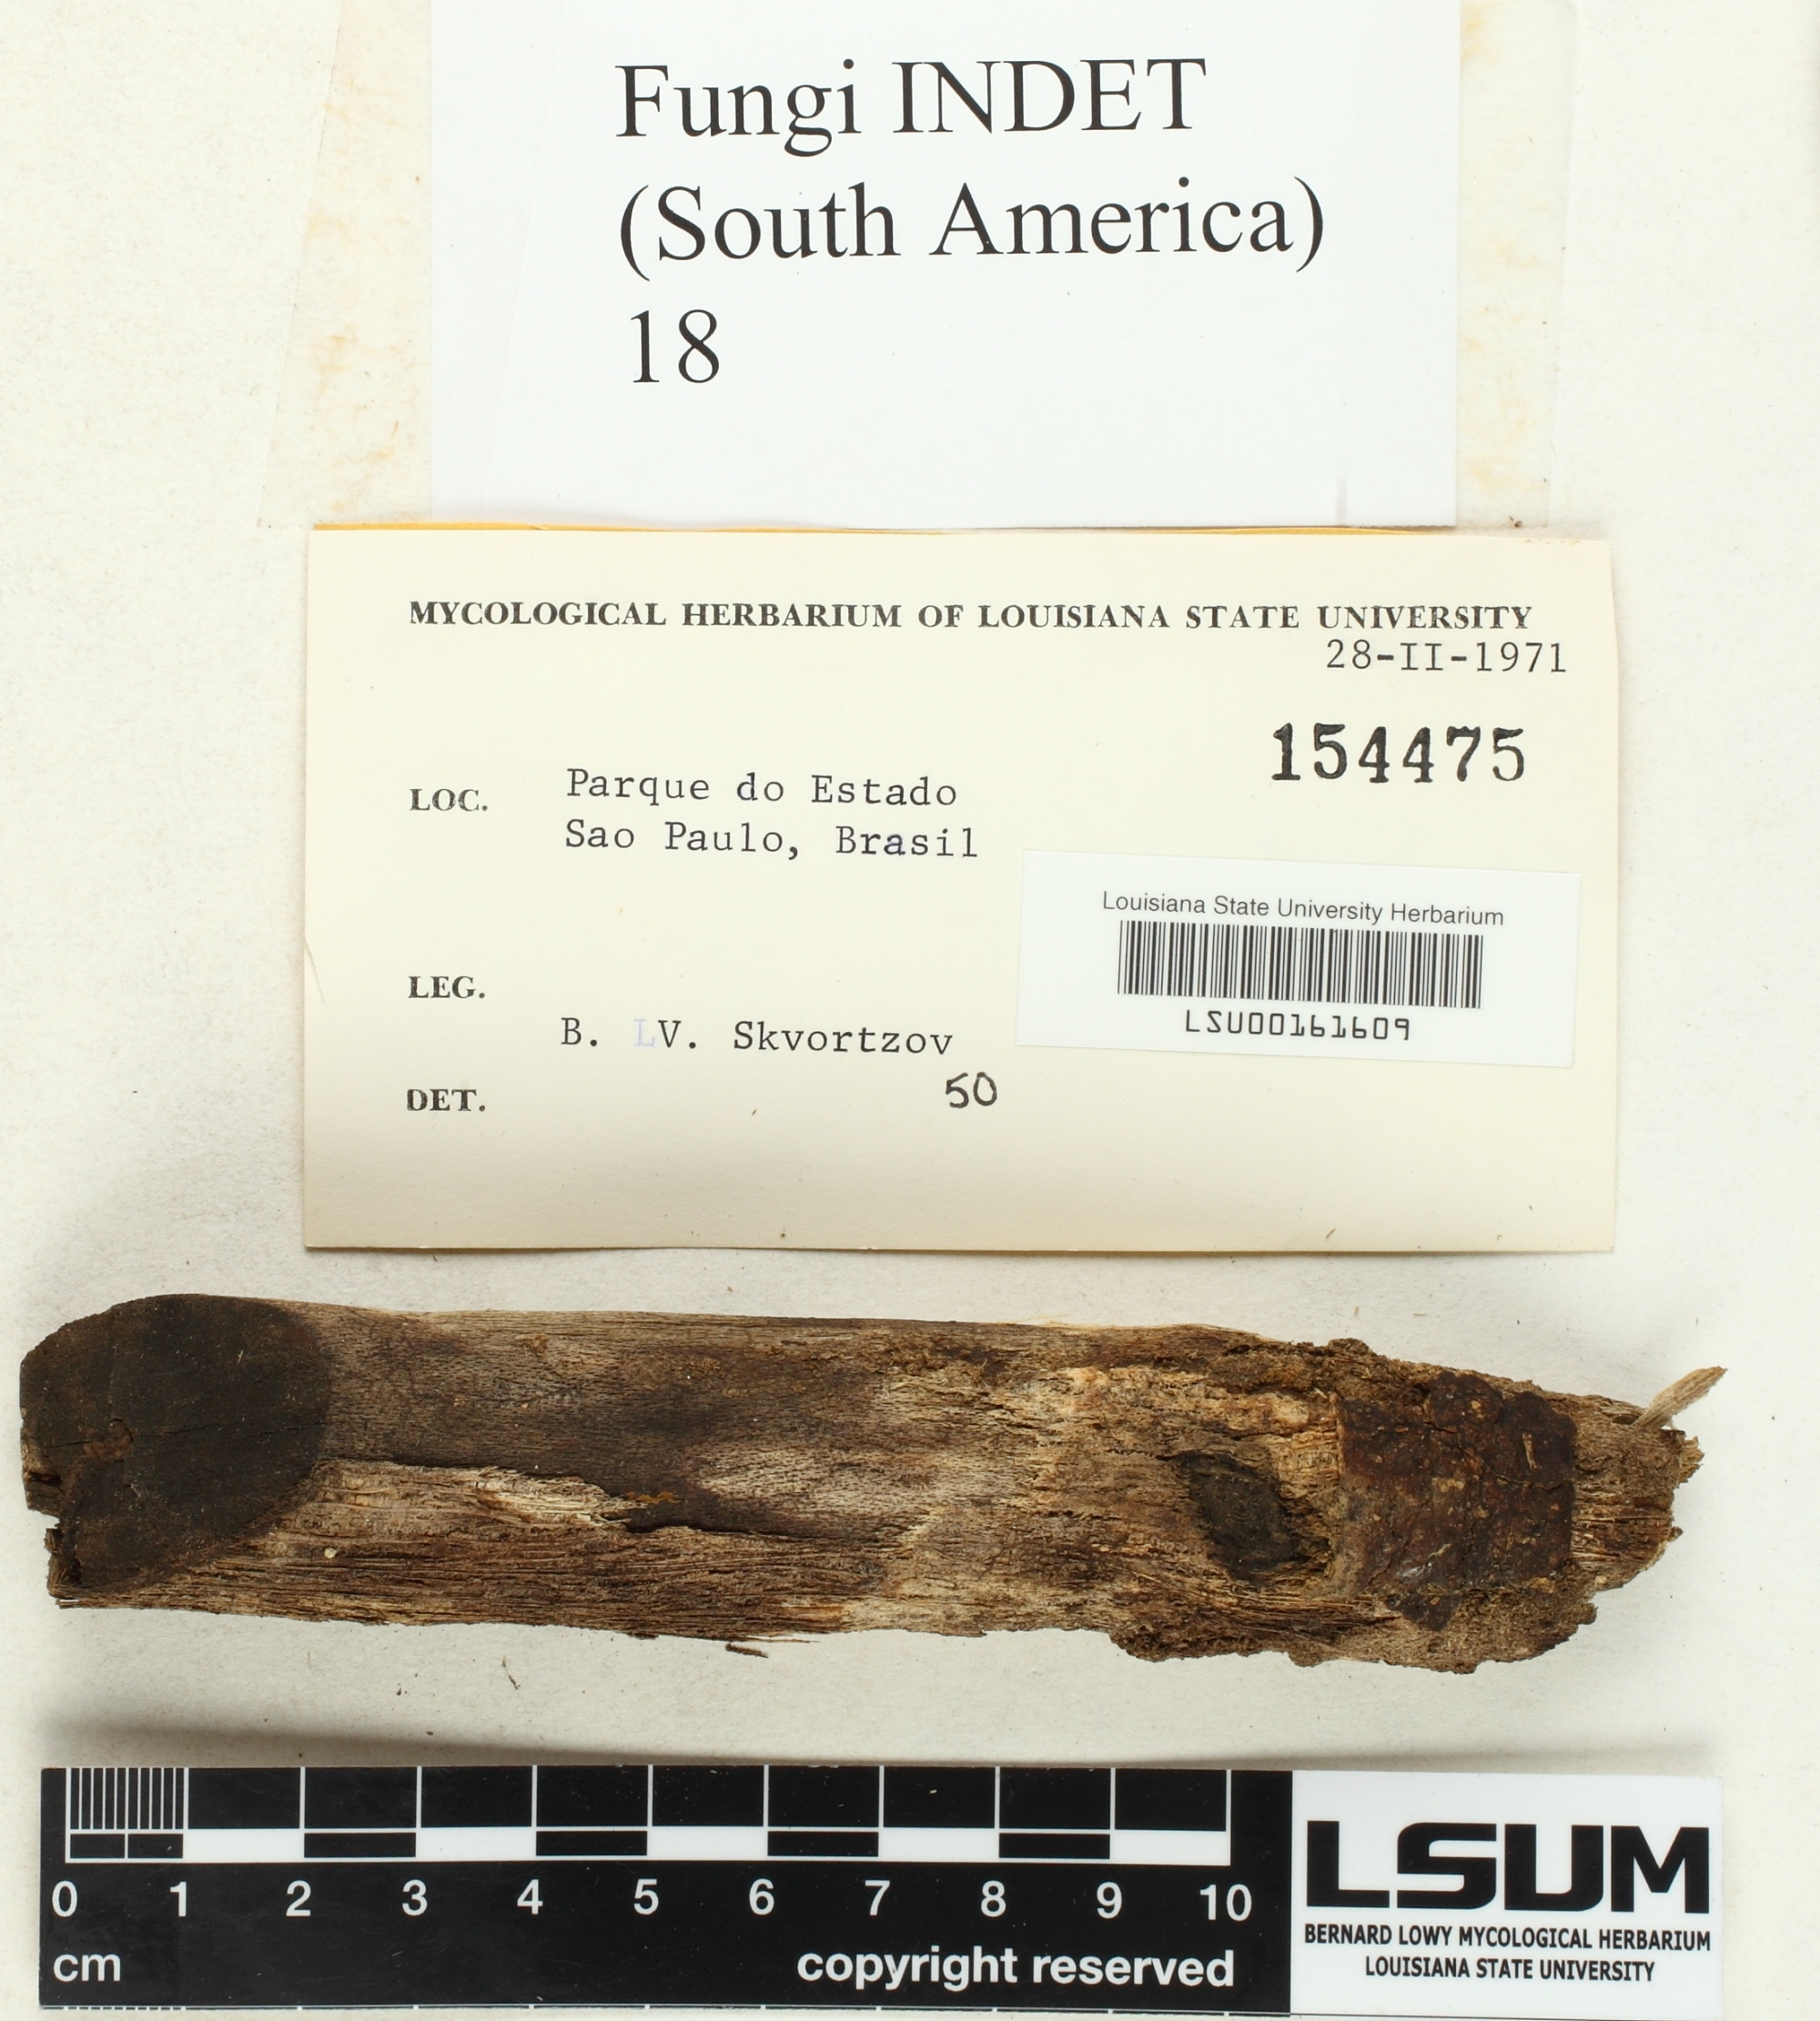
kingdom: Fungi
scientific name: Fungi
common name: Fungi
